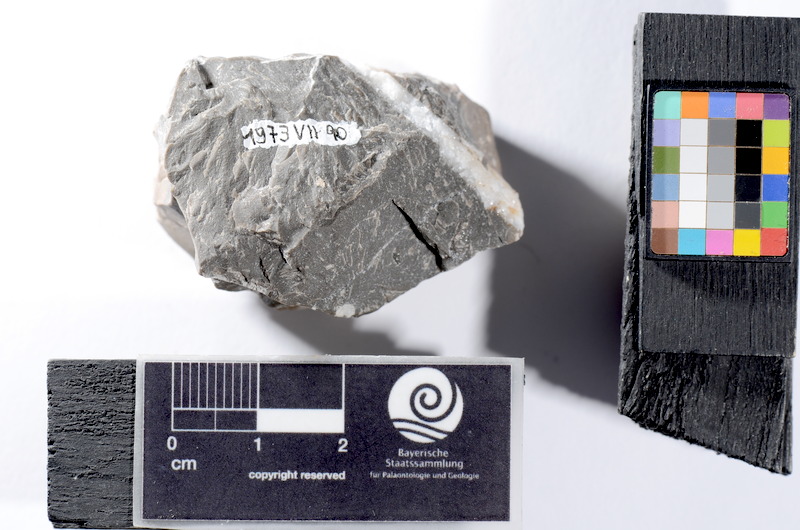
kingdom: Animalia
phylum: Chordata
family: Semionotidae
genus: Sargodon
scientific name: Sargodon tomicus
